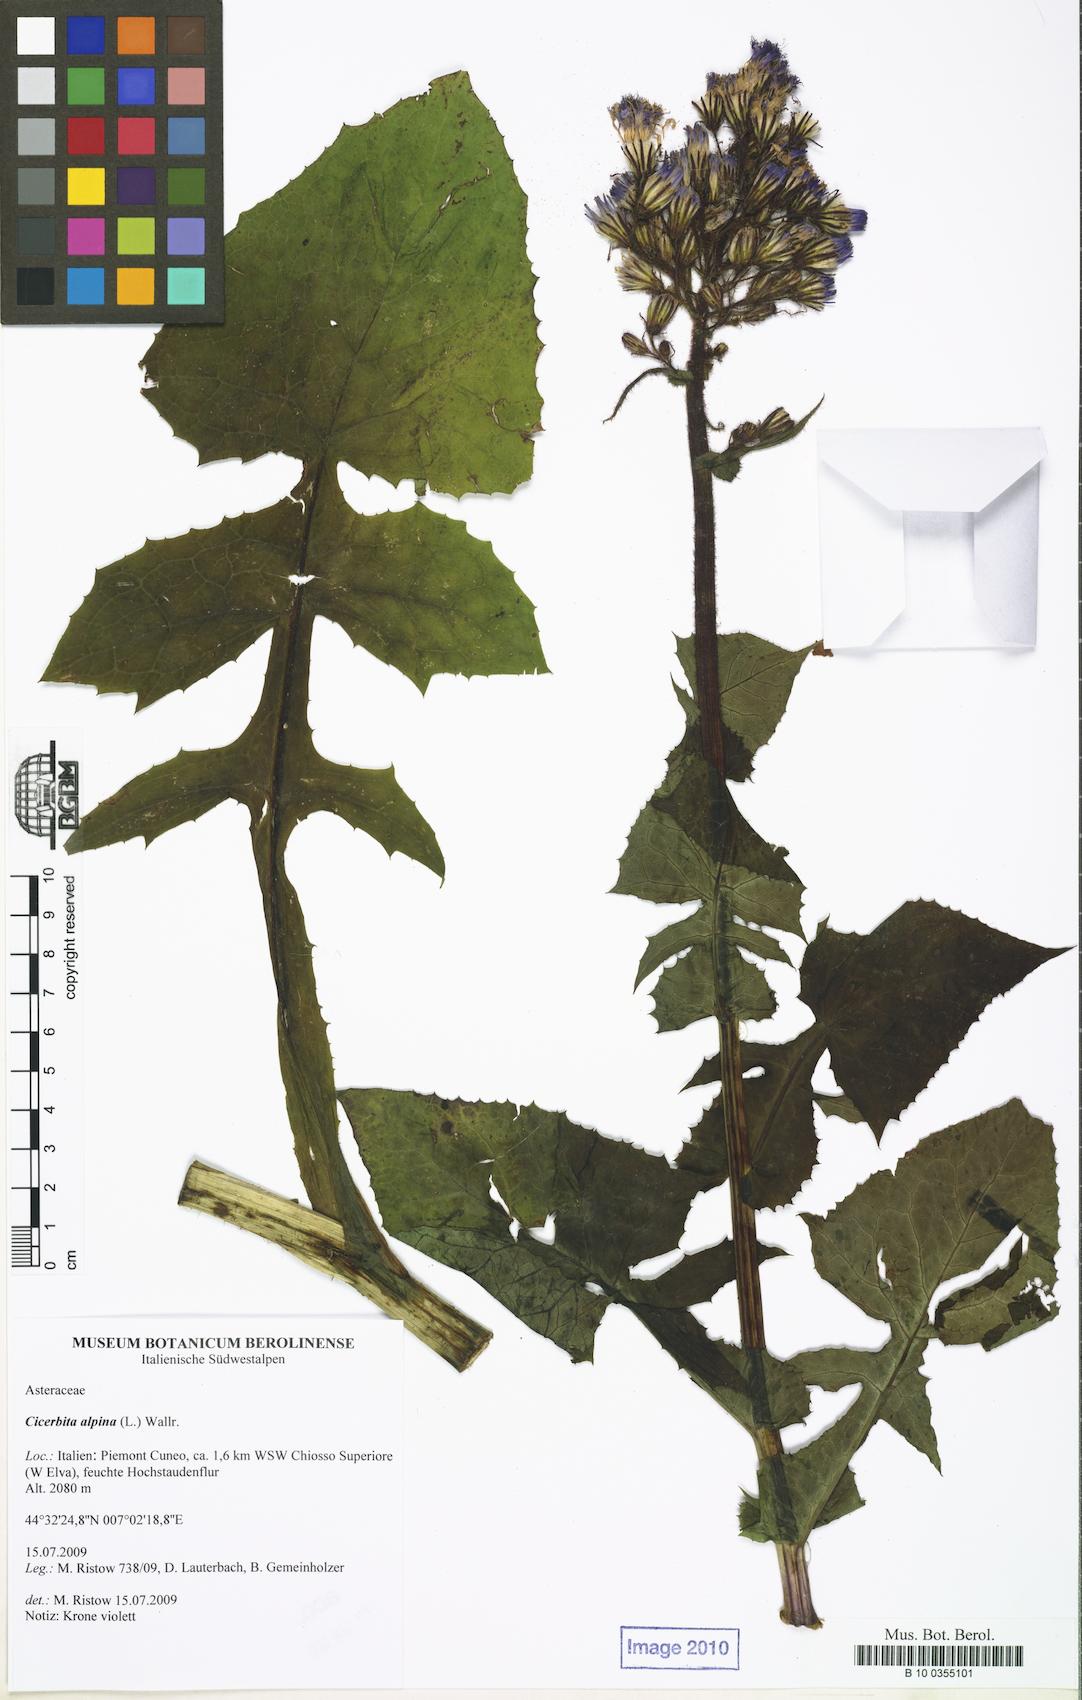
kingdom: Plantae
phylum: Tracheophyta
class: Magnoliopsida
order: Asterales
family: Asteraceae
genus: Cicerbita
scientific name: Cicerbita alpina
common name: Alpine blue-sow-thistle
